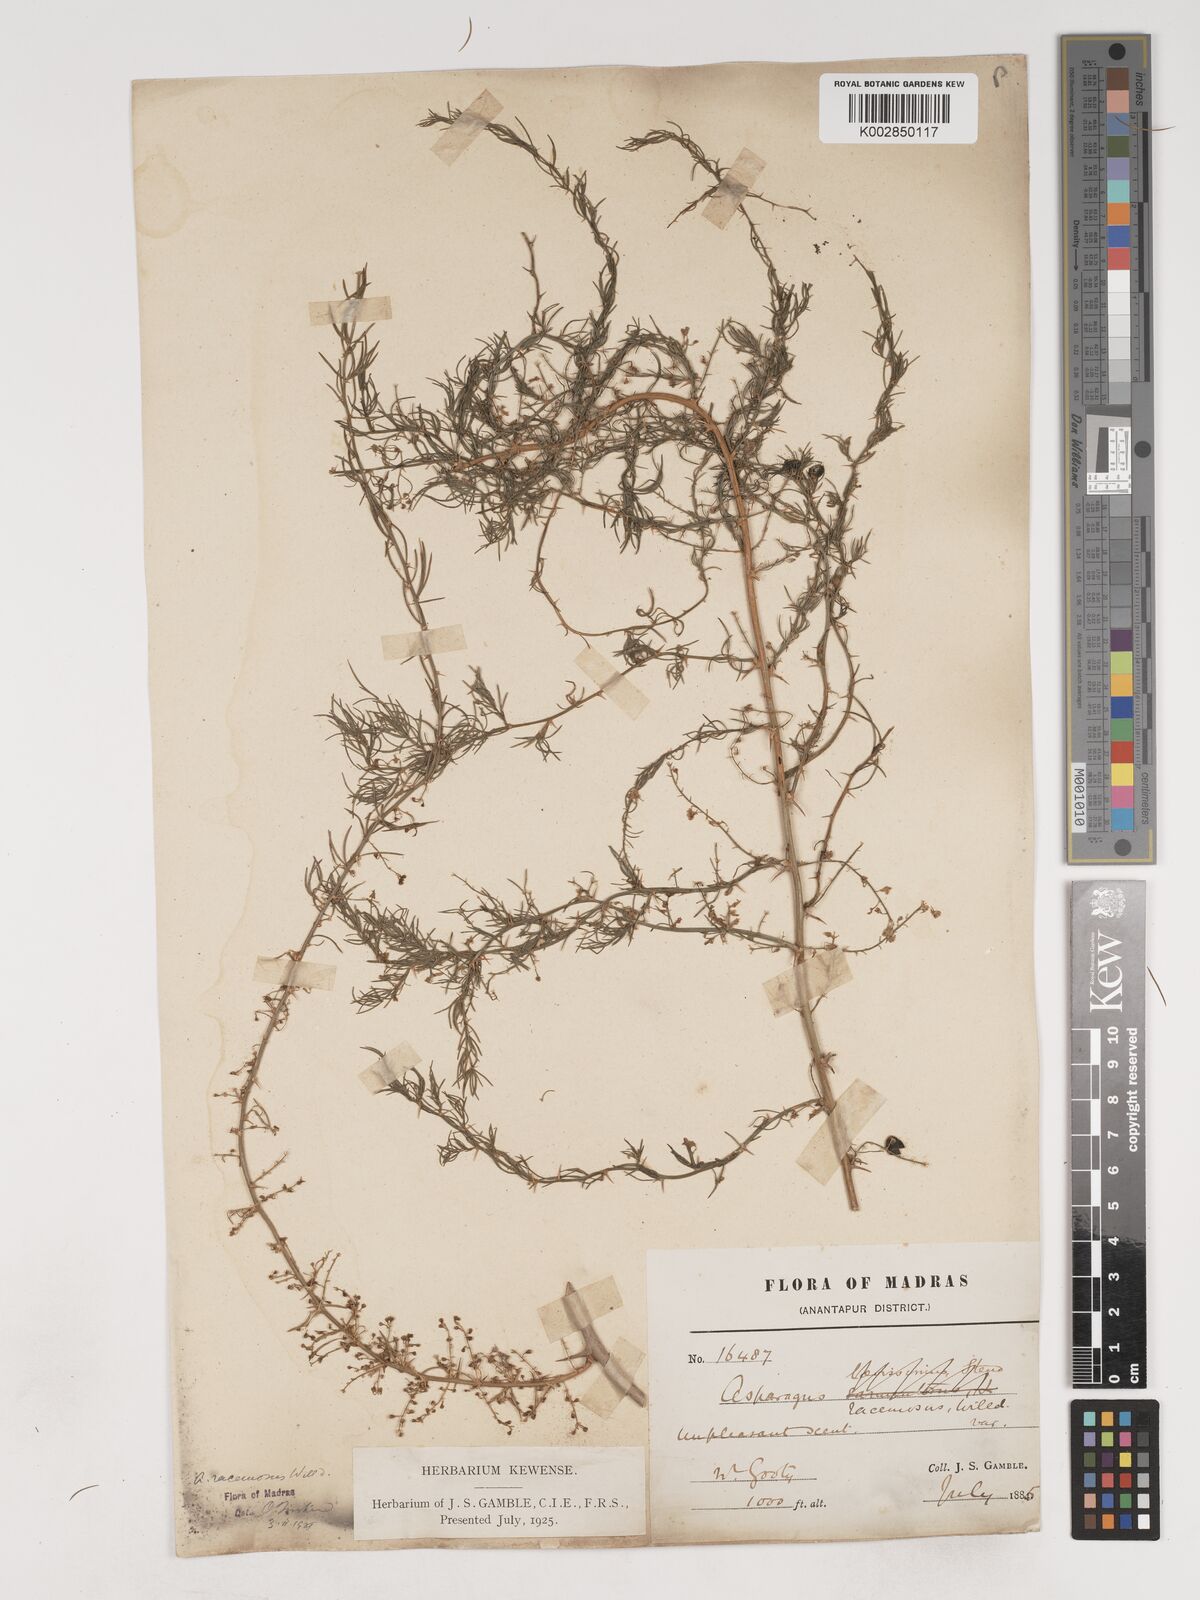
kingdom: Plantae
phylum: Tracheophyta
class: Liliopsida
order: Asparagales
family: Asparagaceae
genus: Asparagus
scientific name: Asparagus racemosus
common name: Asparagus-fern
